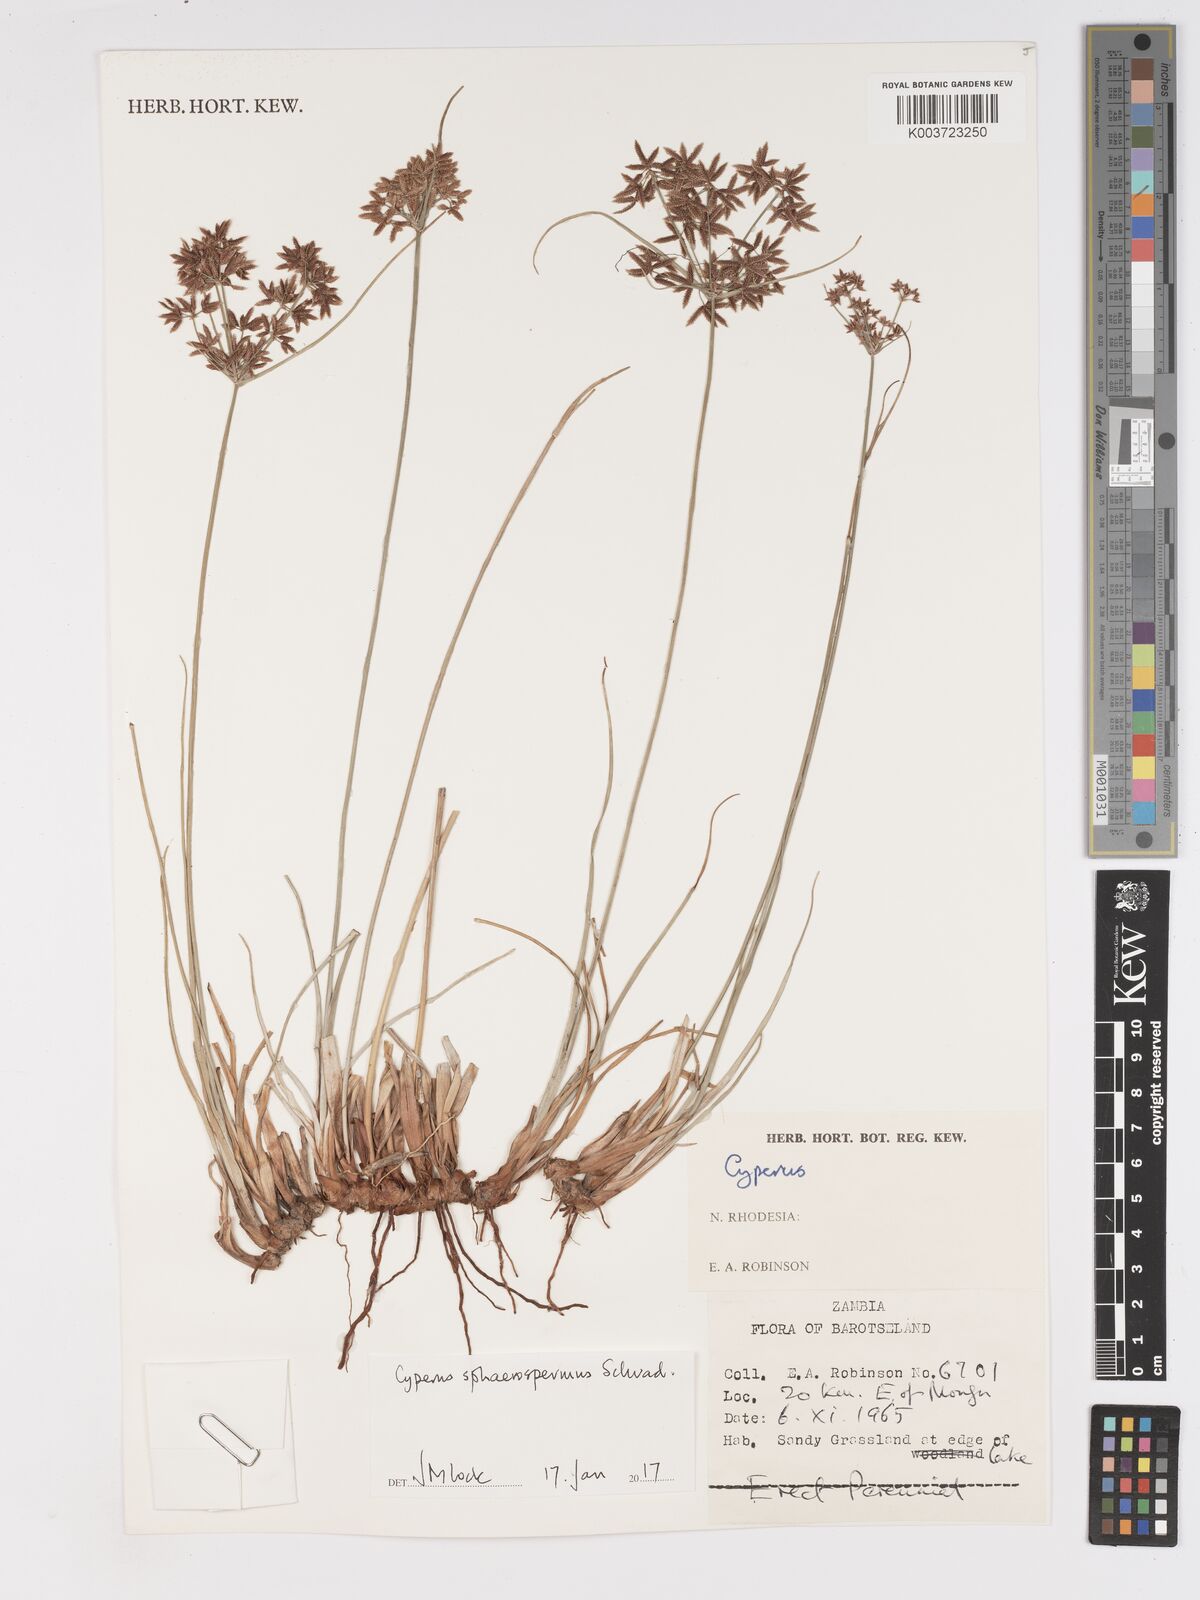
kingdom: Plantae
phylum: Tracheophyta
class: Liliopsida
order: Poales
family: Cyperaceae
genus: Cyperus
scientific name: Cyperus denudatus
